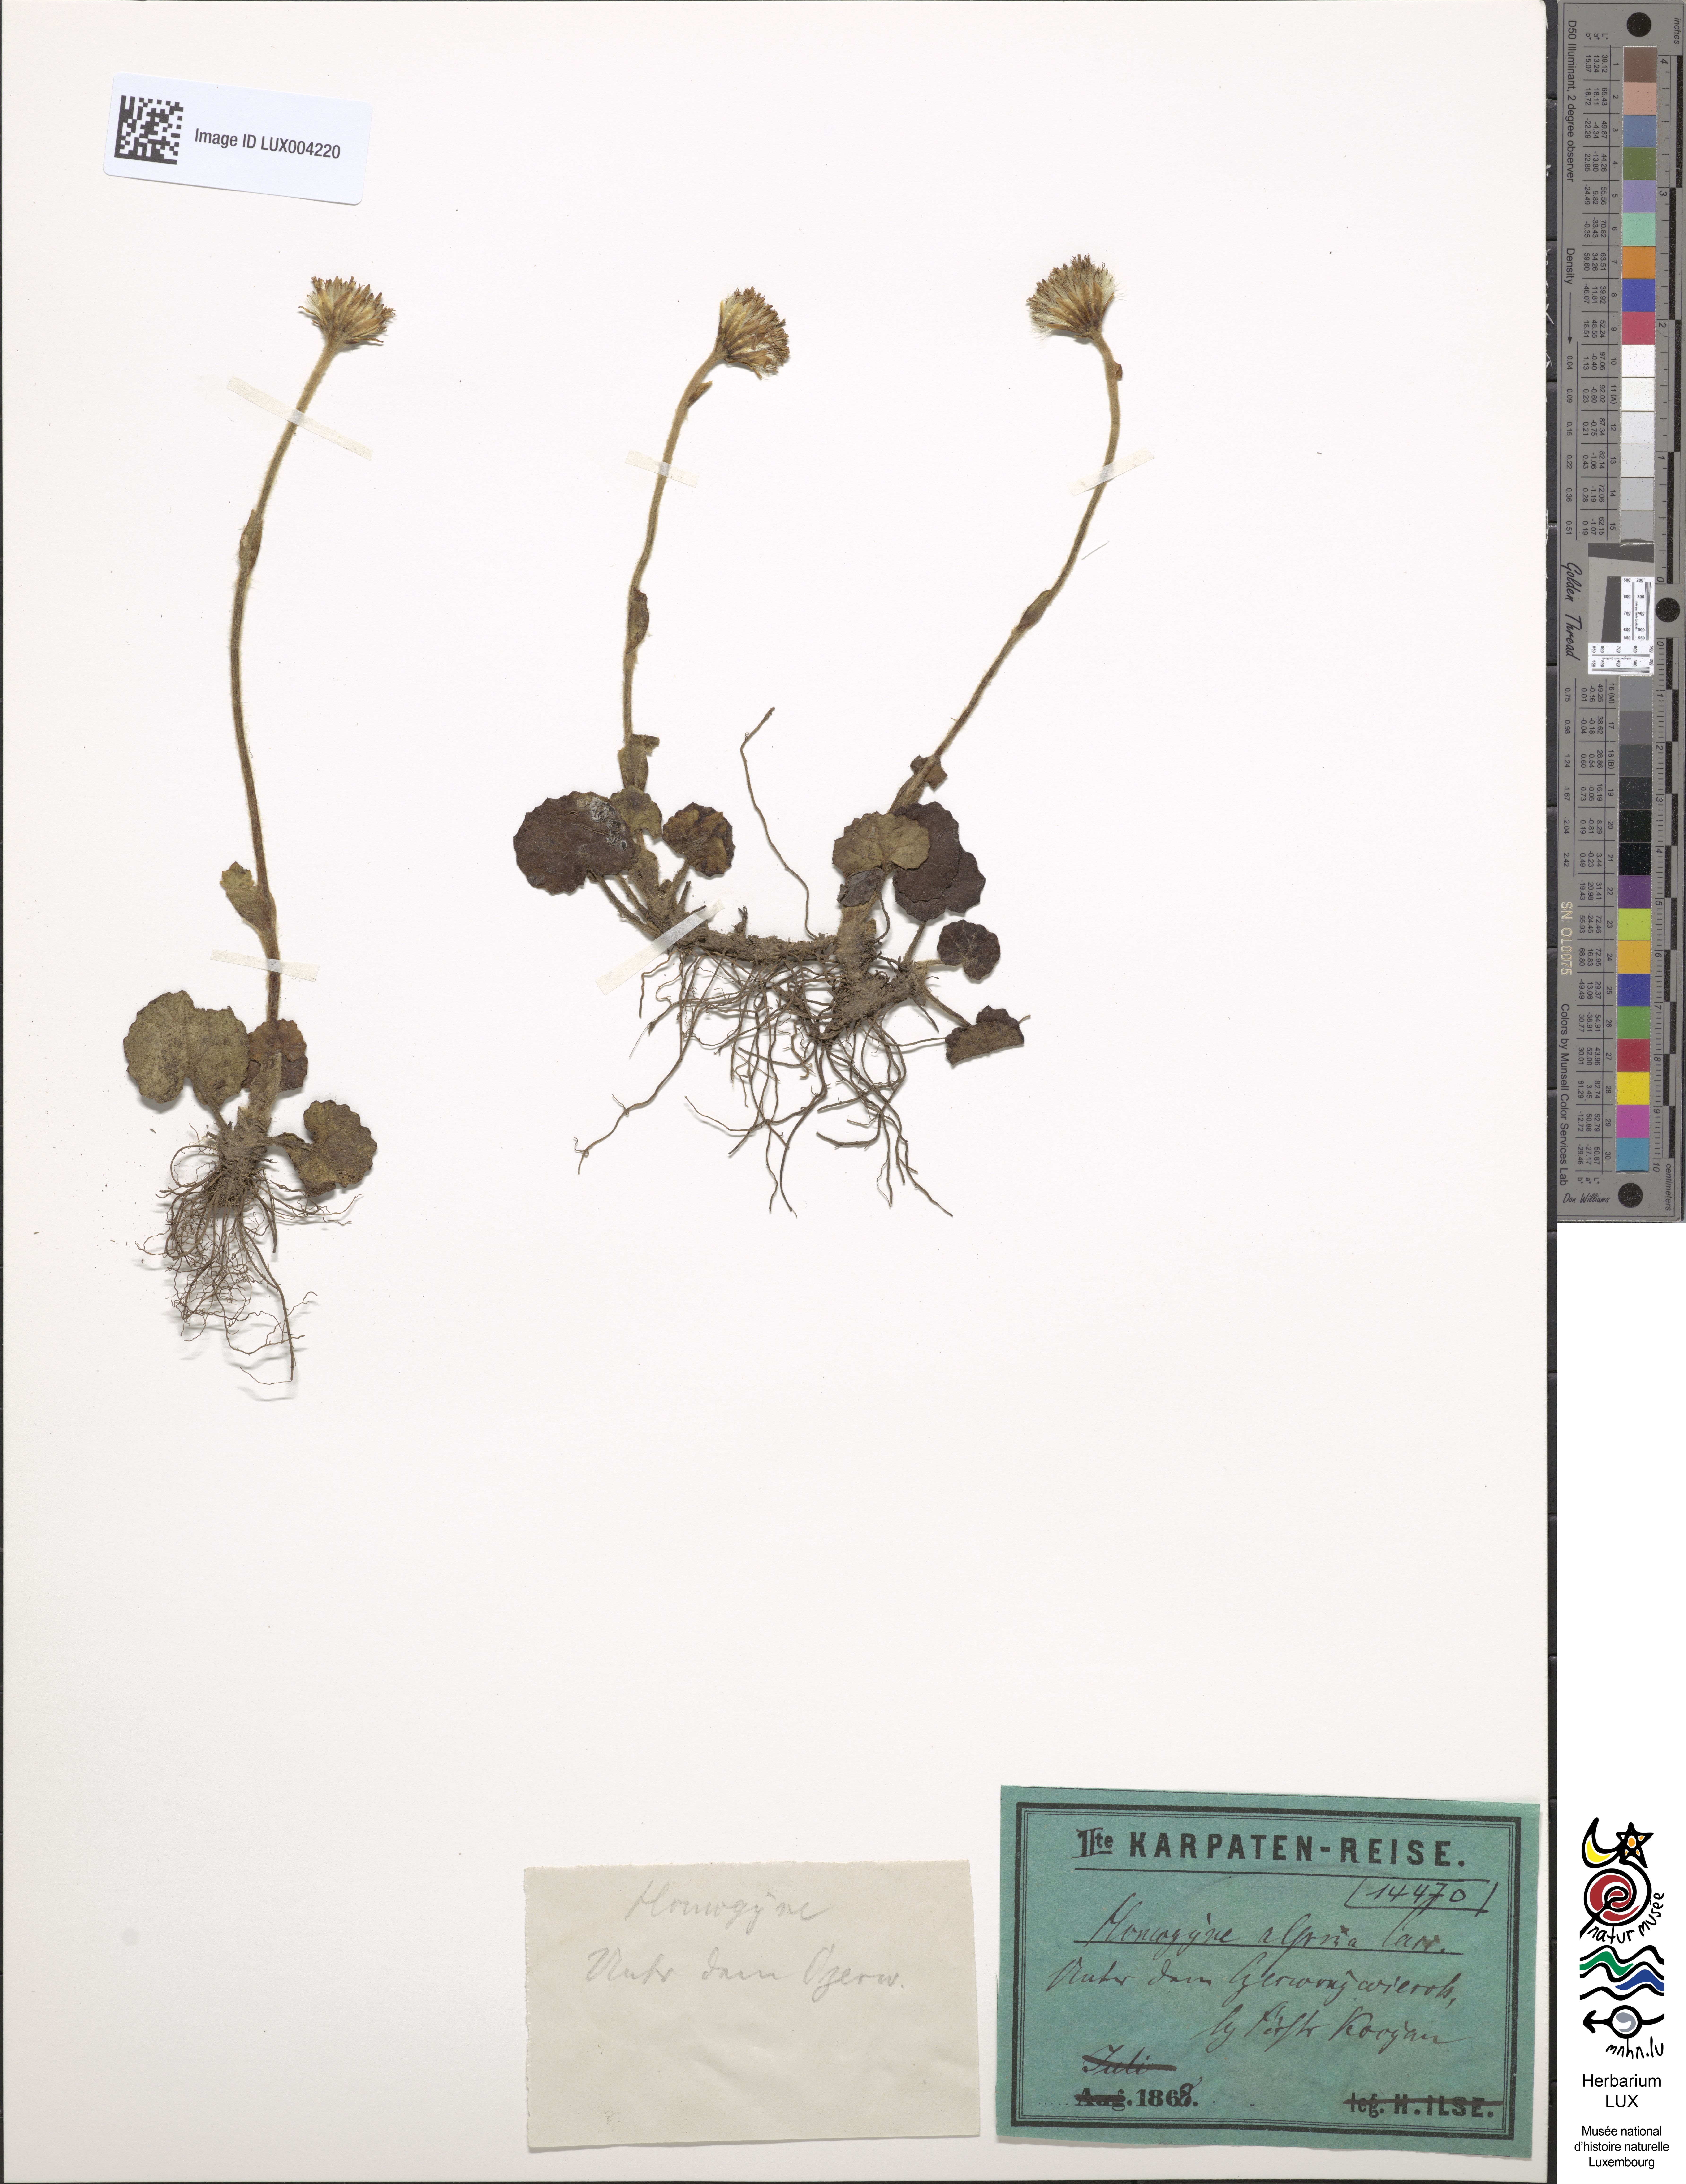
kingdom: Plantae
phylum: Tracheophyta
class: Magnoliopsida
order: Asterales
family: Asteraceae
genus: Homogyne
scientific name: Homogyne alpina
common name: Purple colt's-foot
